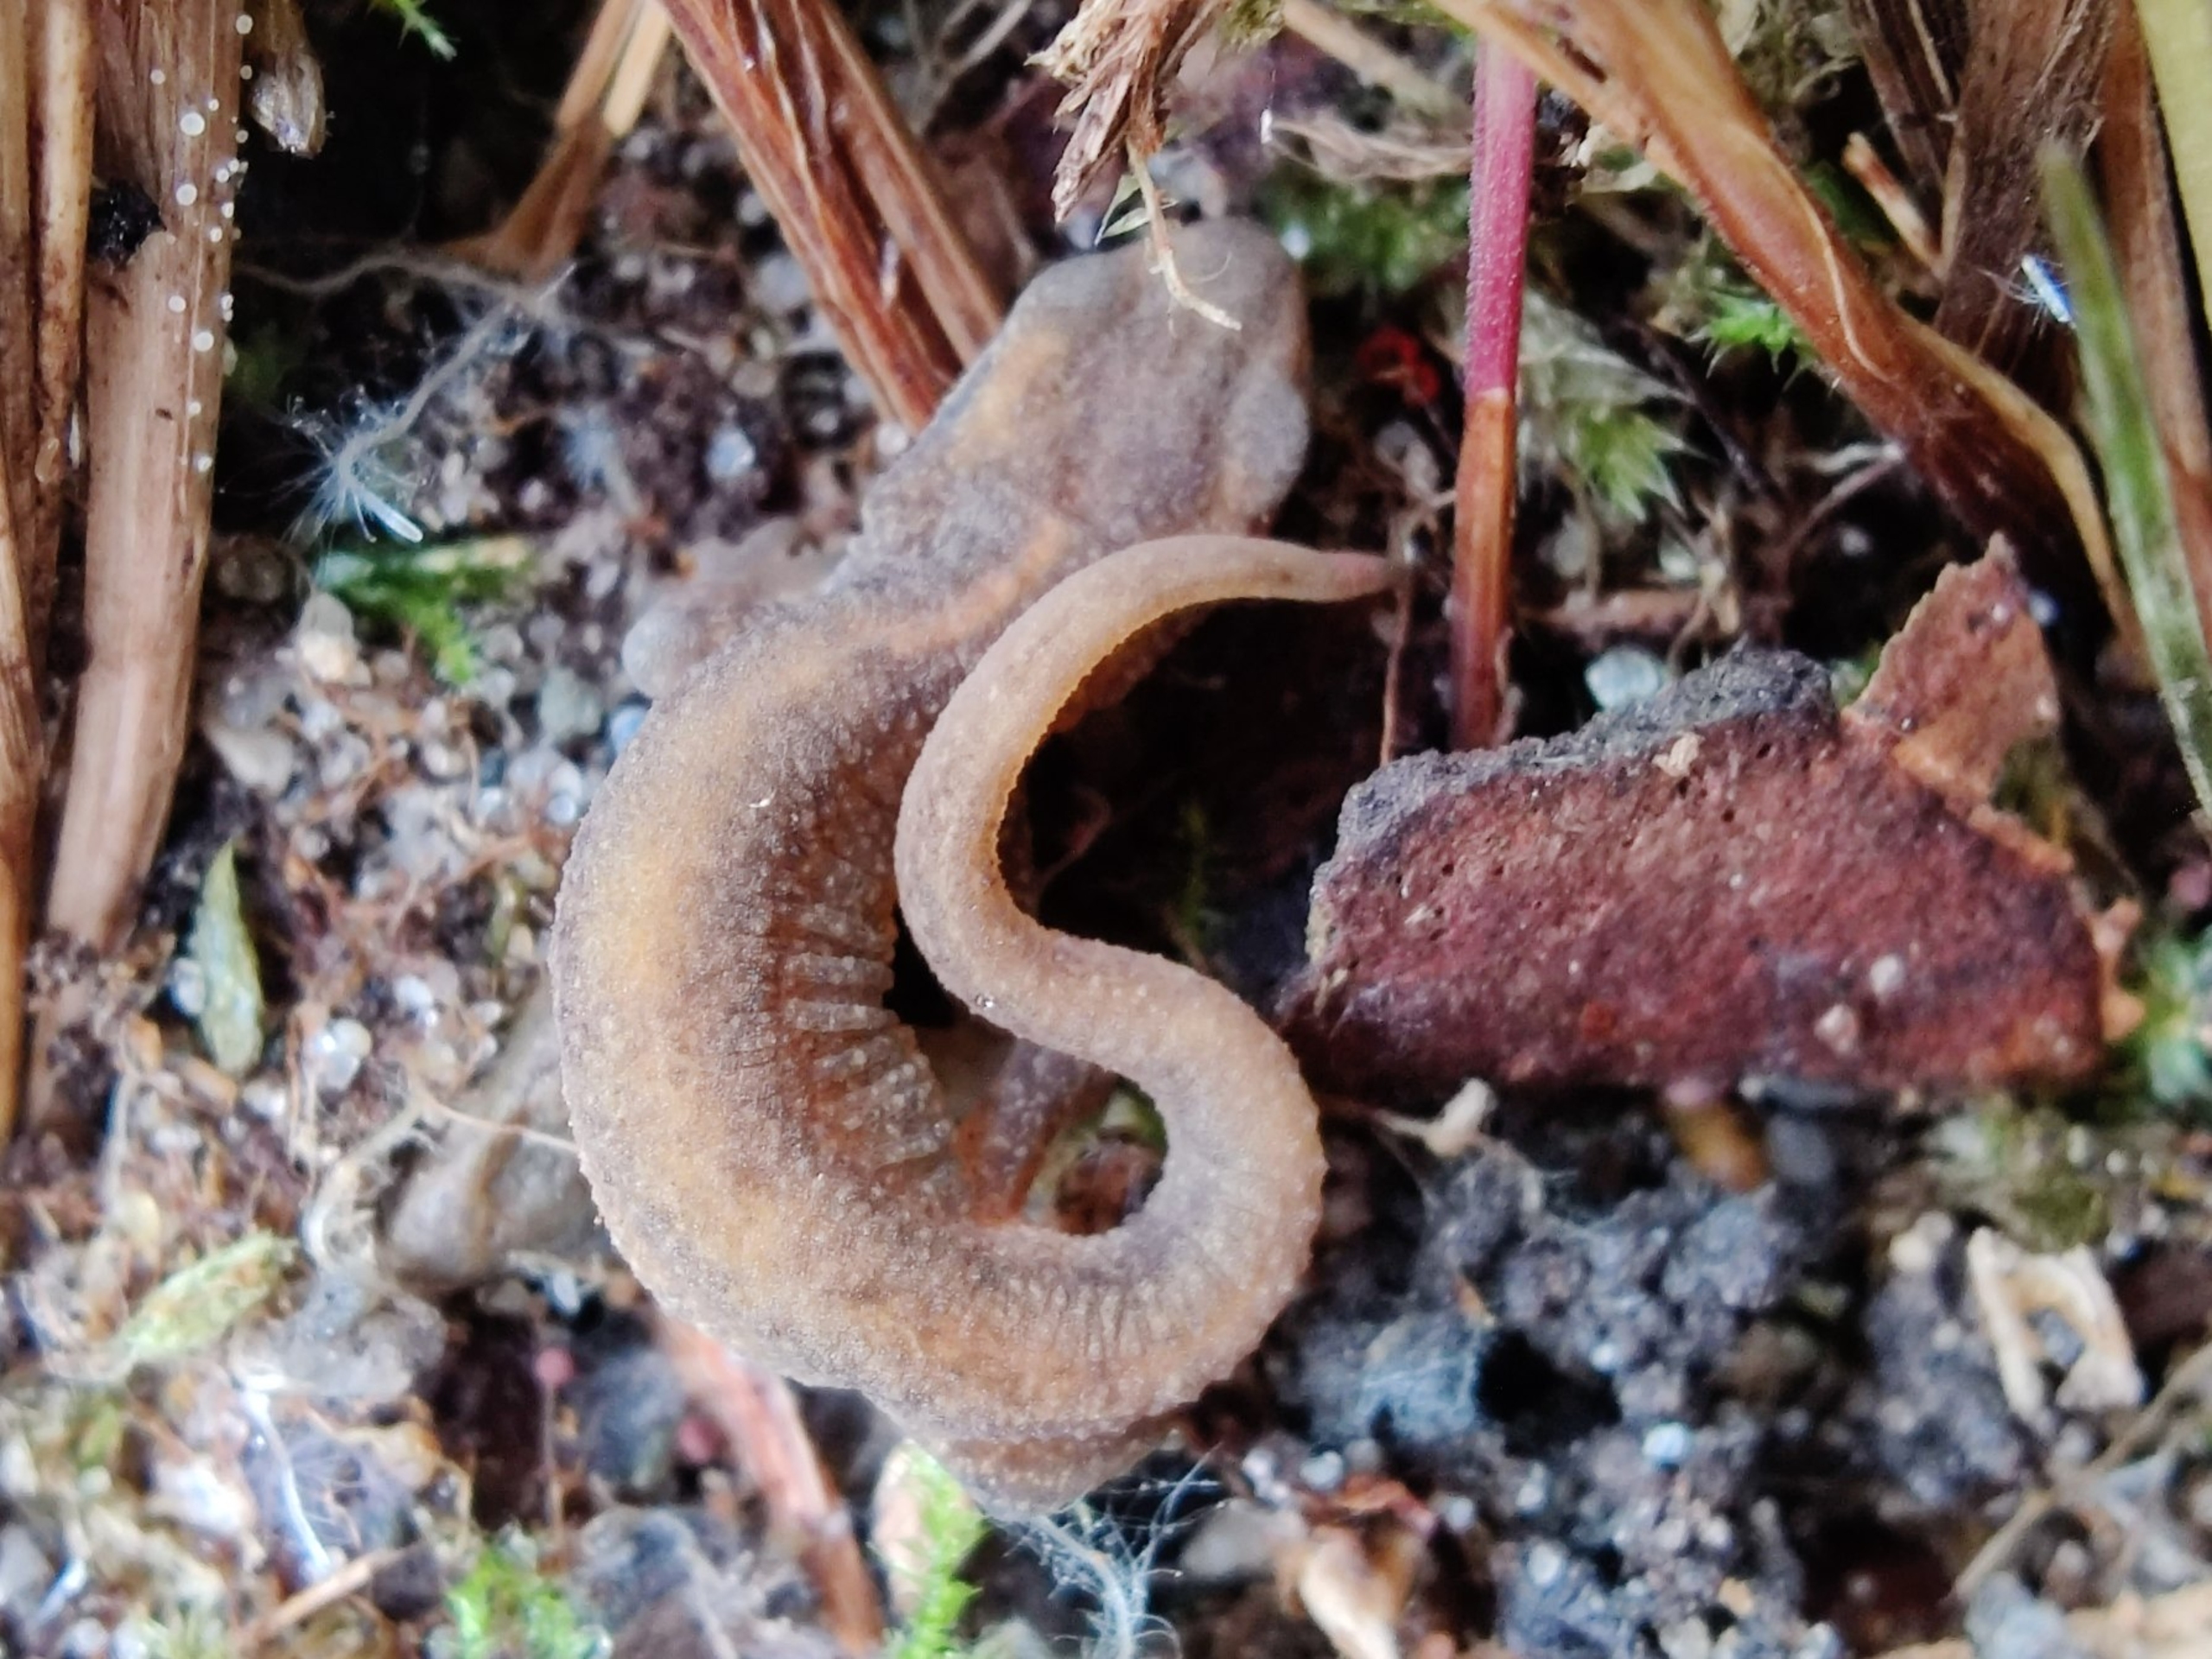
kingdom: Animalia
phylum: Chordata
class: Amphibia
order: Caudata
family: Salamandridae
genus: Lissotriton
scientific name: Lissotriton vulgaris
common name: Lille vandsalamander
